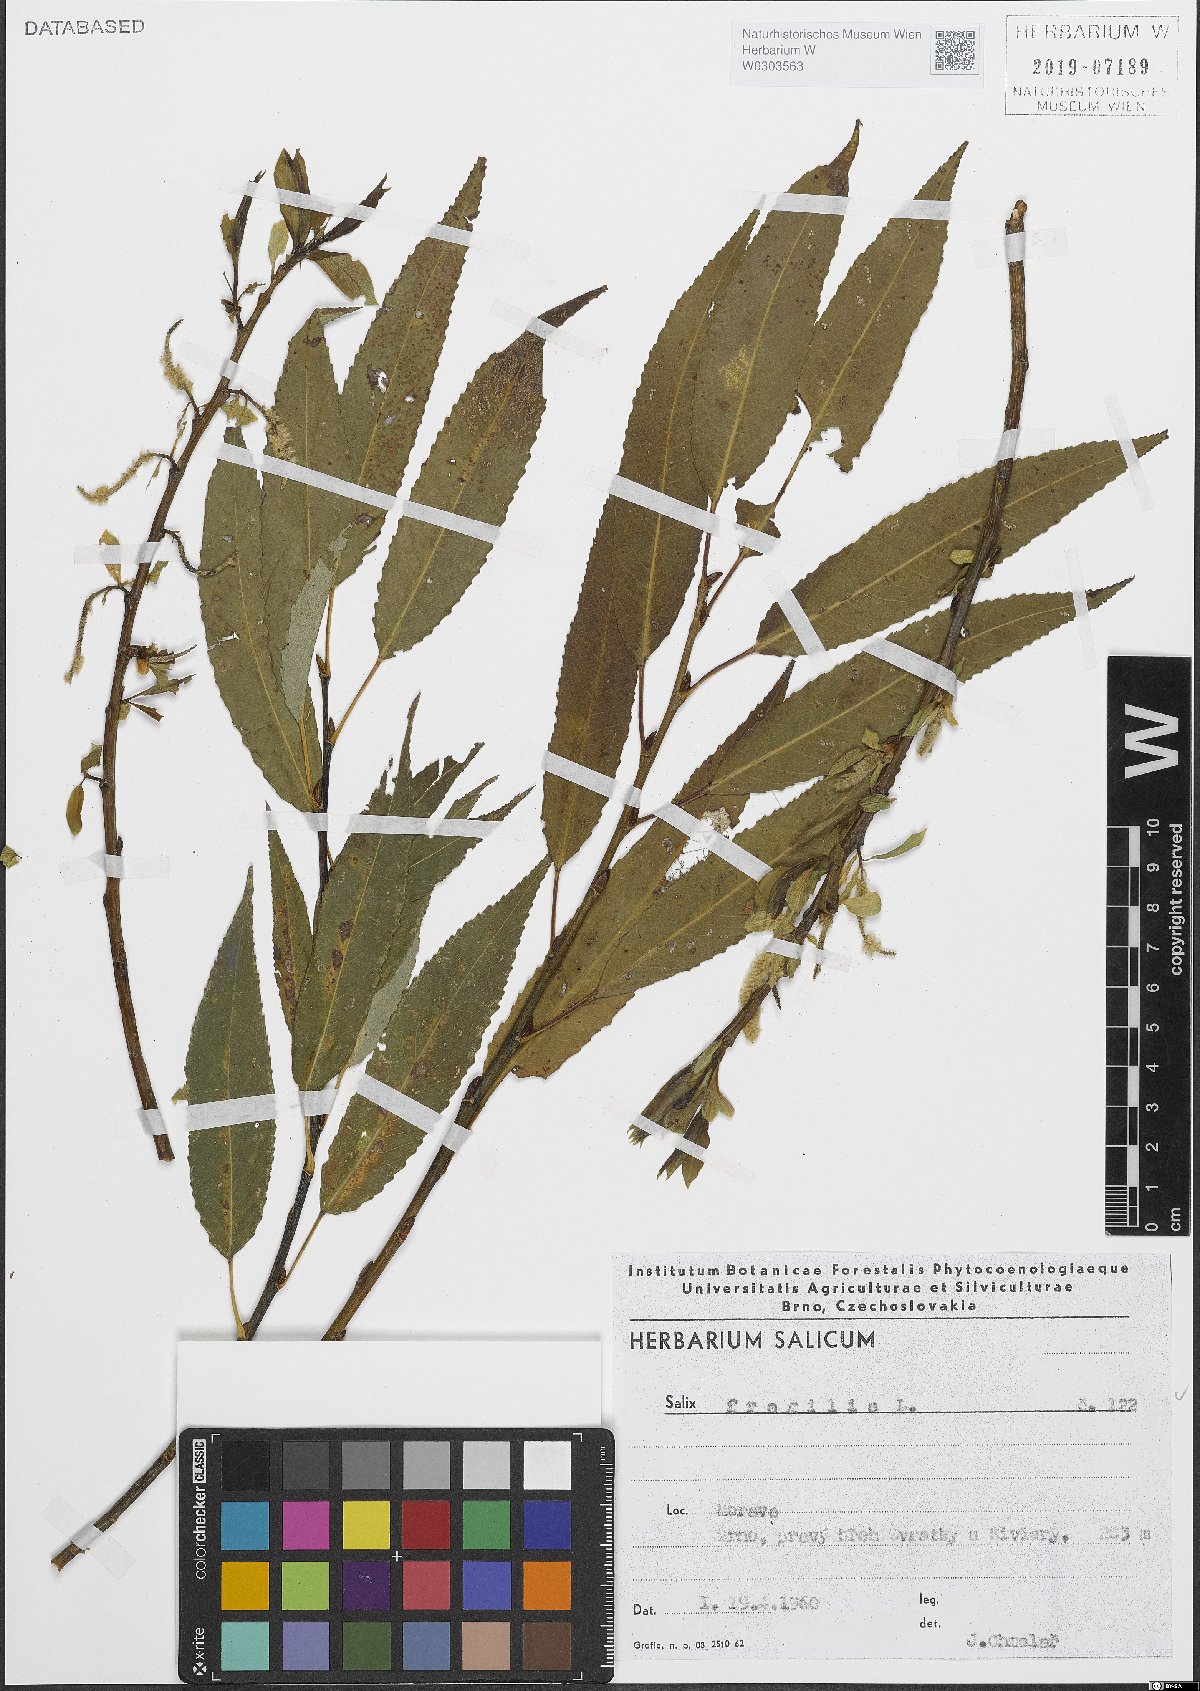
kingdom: Plantae
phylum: Tracheophyta
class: Magnoliopsida
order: Malpighiales
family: Salicaceae
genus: Salix
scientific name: Salix fragilis
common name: Crack willow
